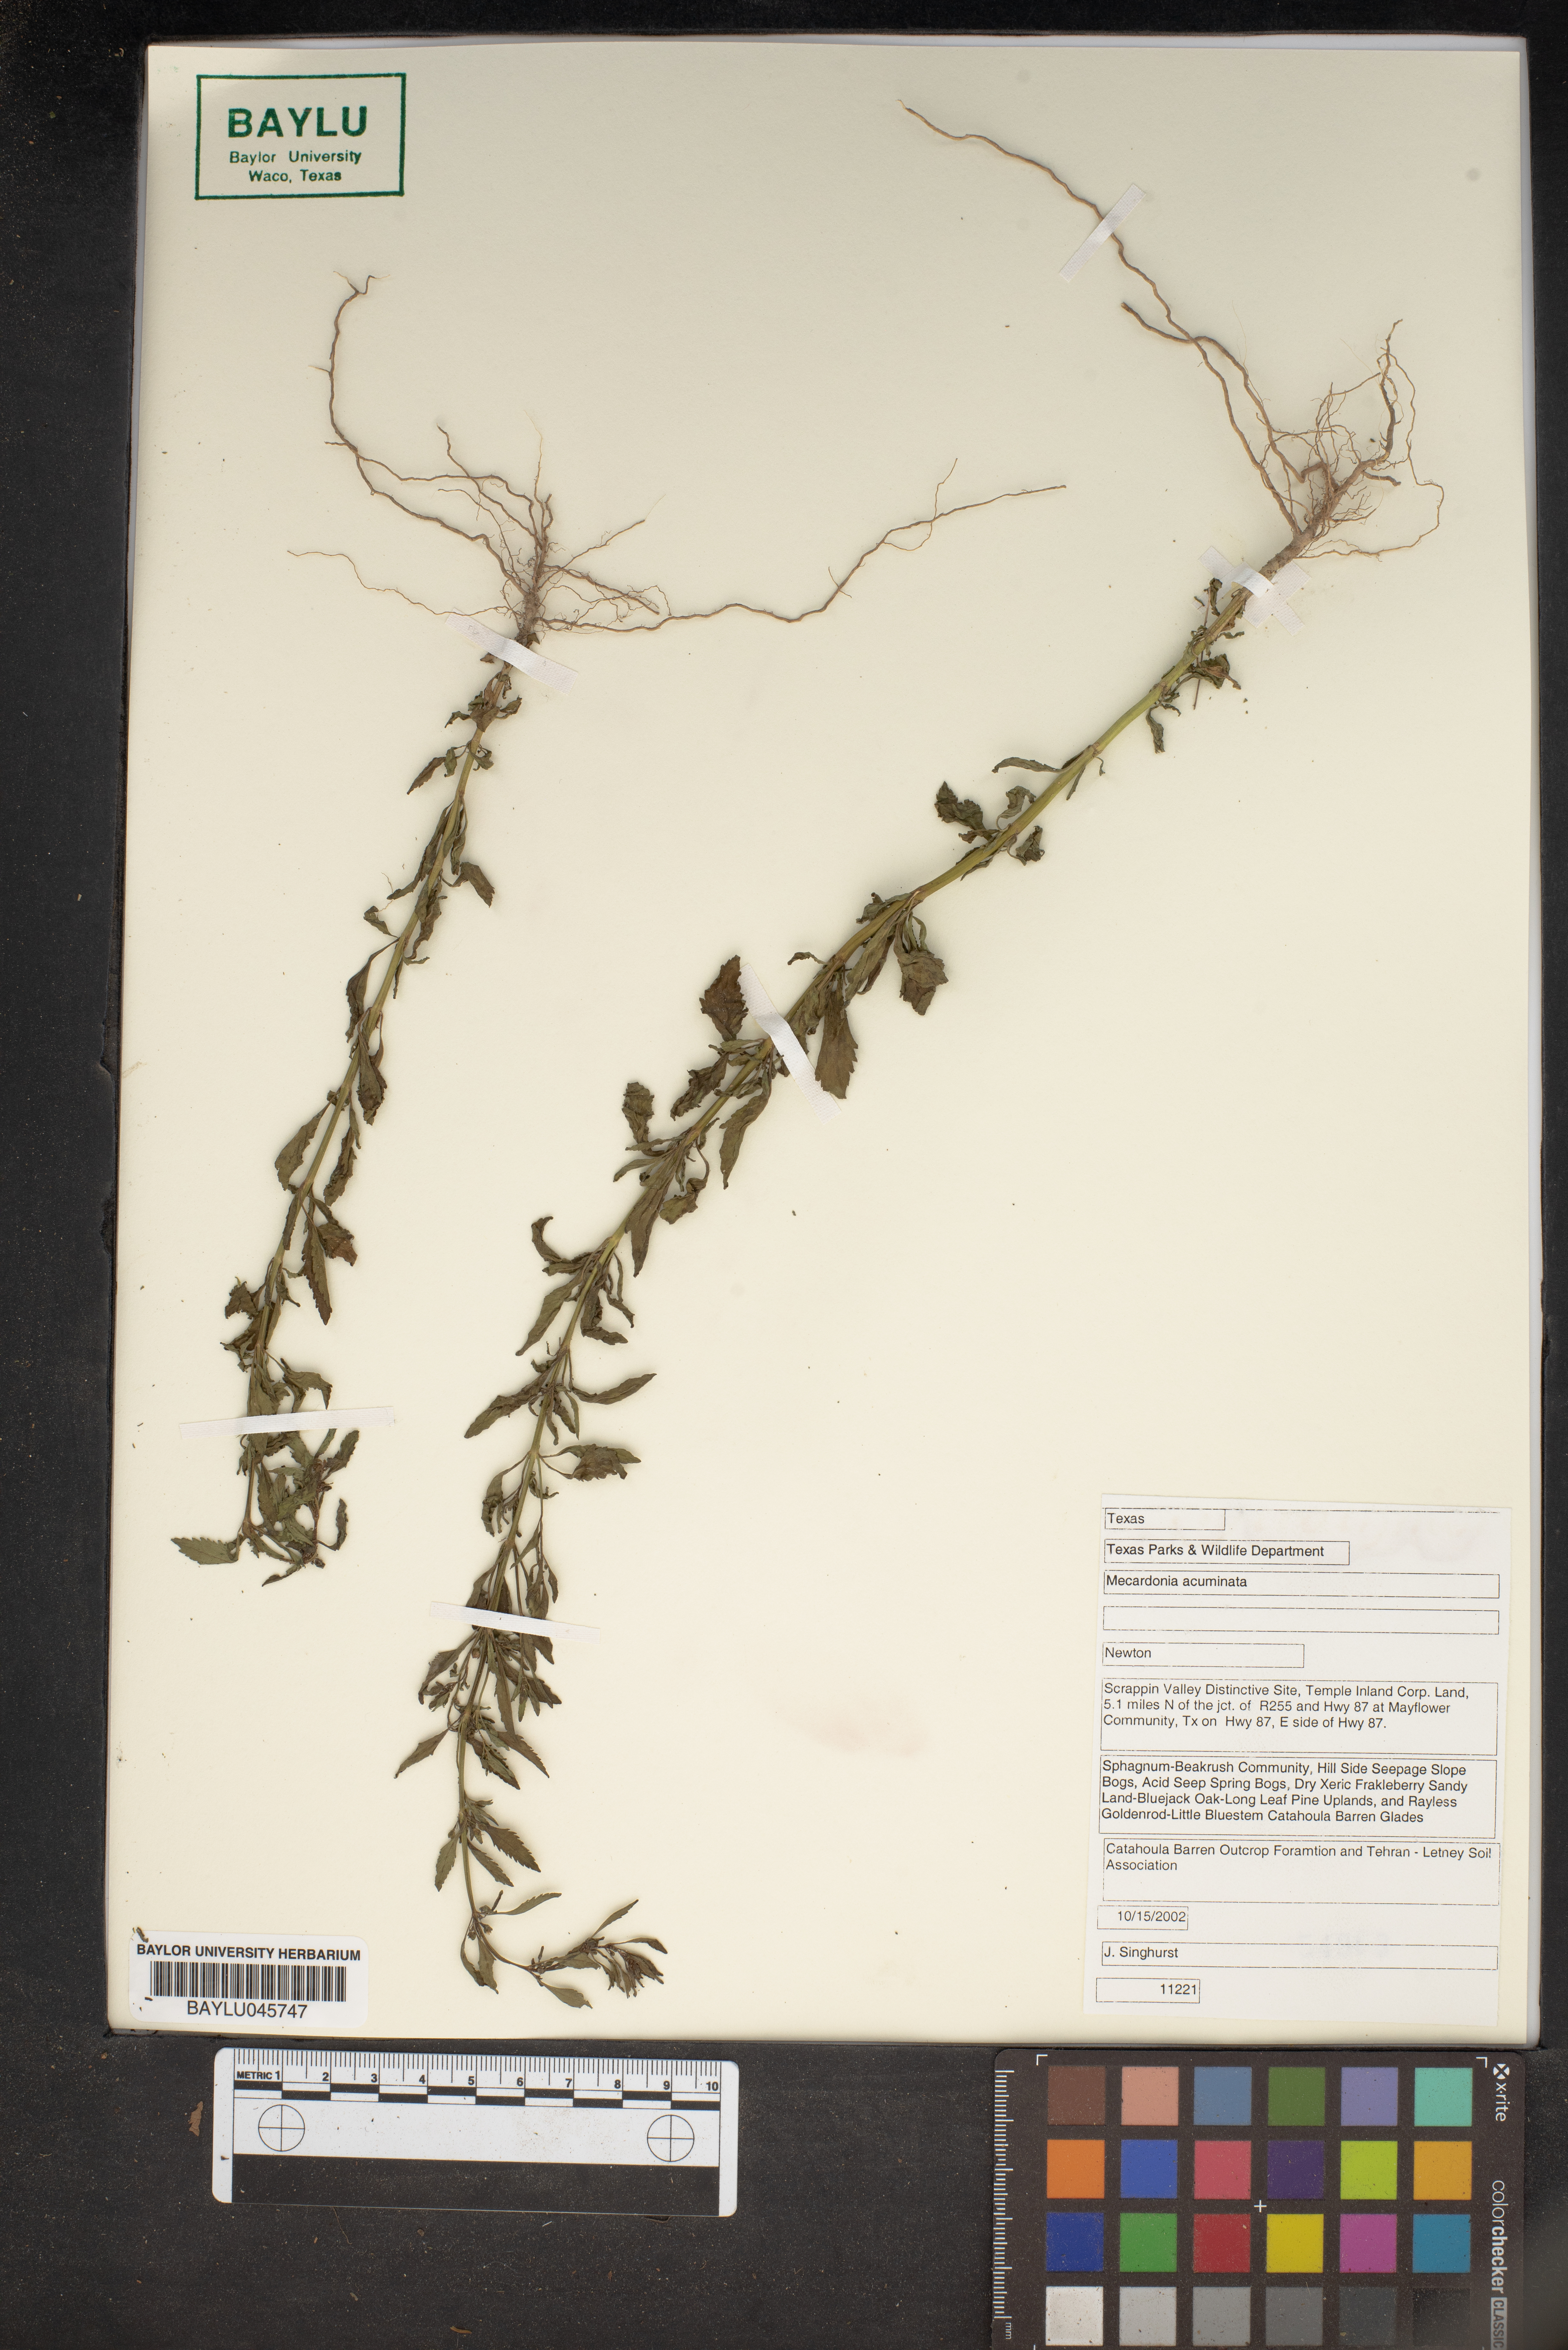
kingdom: Plantae
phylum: Tracheophyta
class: Magnoliopsida
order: Lamiales
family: Plantaginaceae
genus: Mecardonia
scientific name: Mecardonia acuminata
